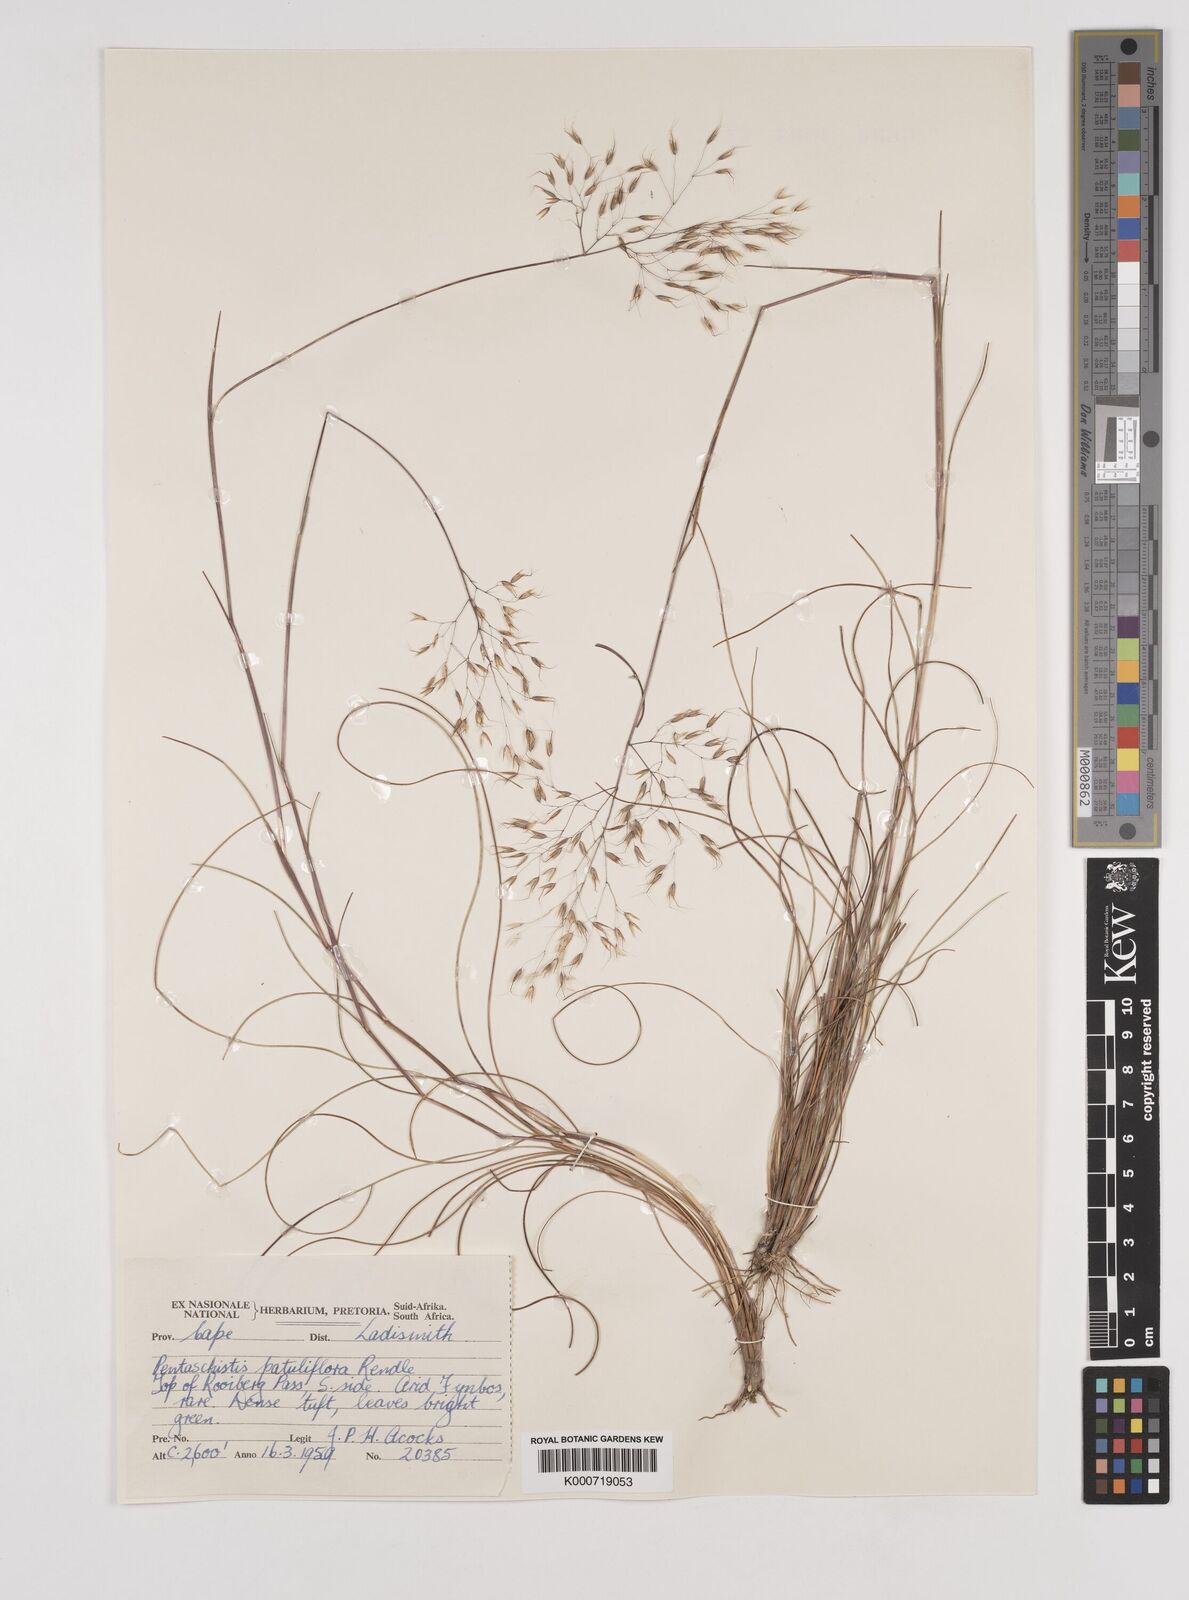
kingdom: Plantae
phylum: Tracheophyta
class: Liliopsida
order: Poales
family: Poaceae
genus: Pentameris
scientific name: Pentameris cirrhulosa
